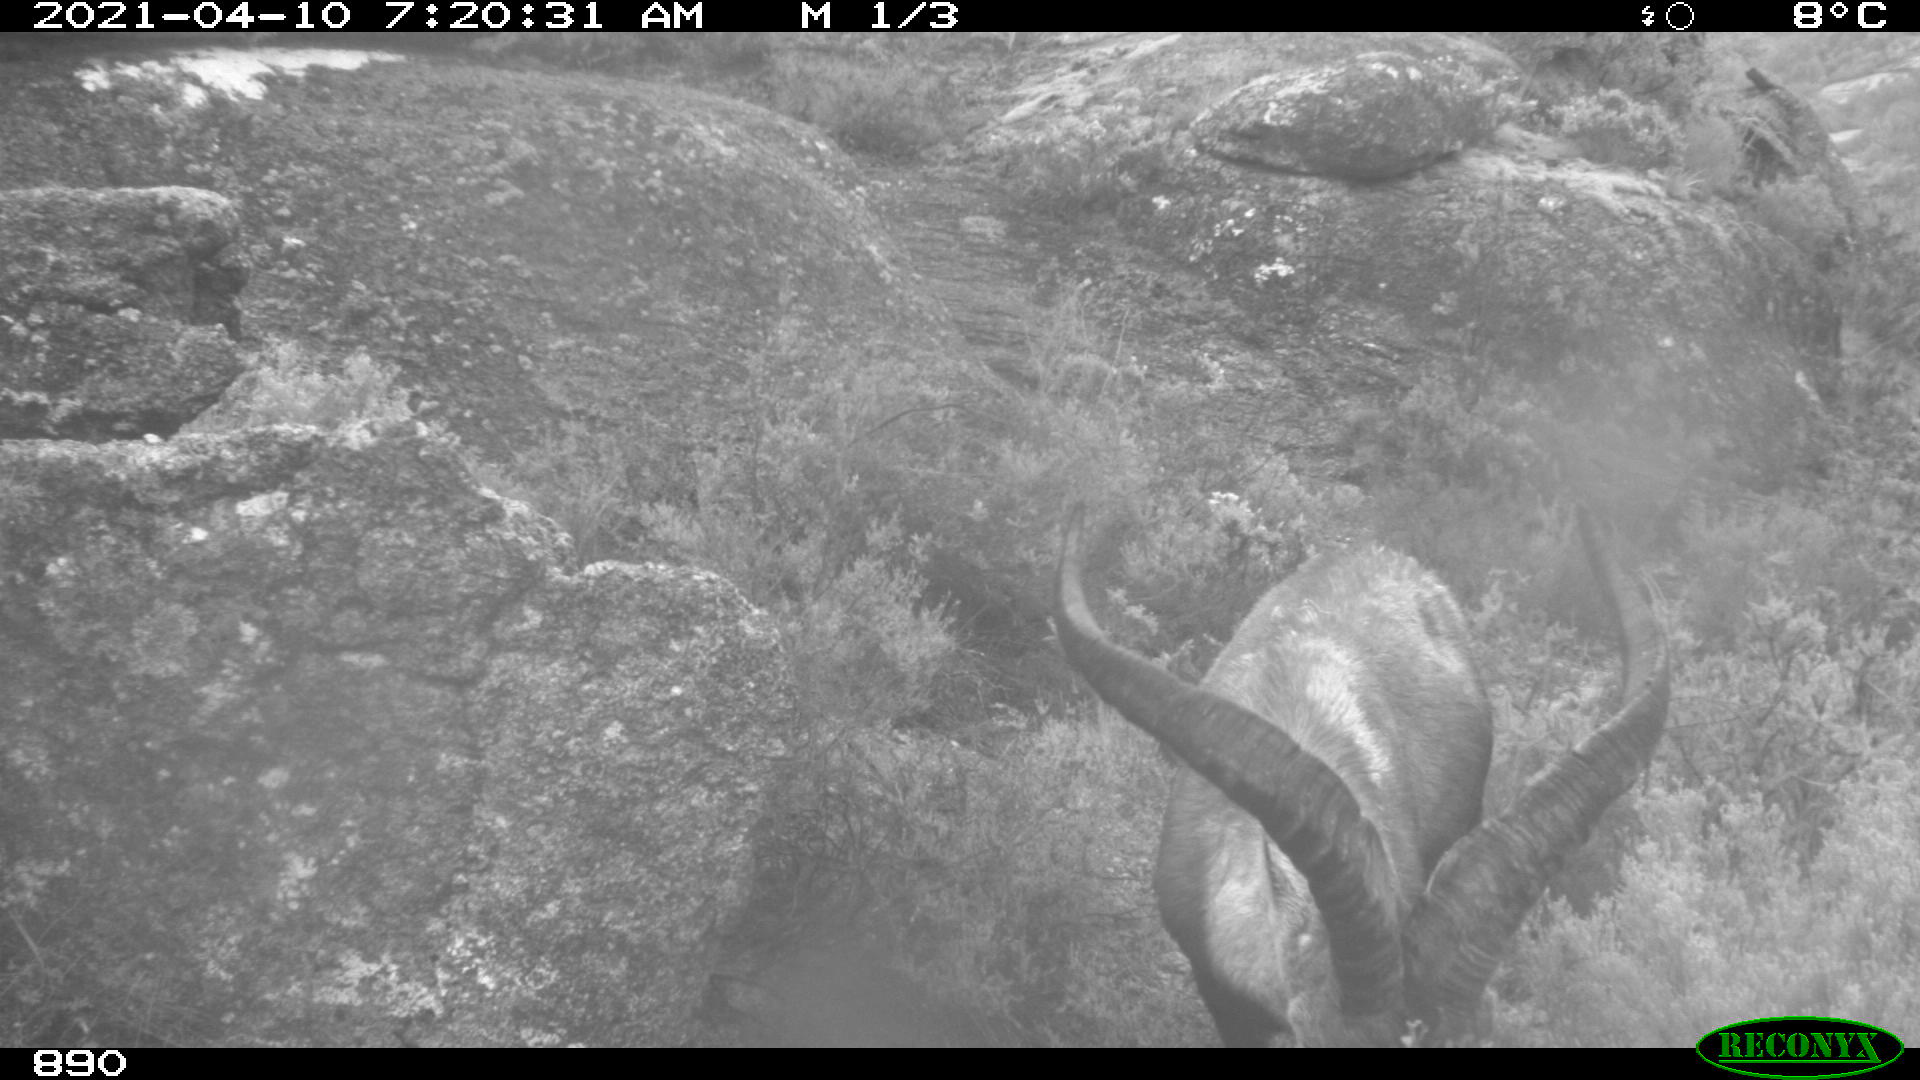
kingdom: Animalia
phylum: Chordata
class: Mammalia
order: Artiodactyla
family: Bovidae
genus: Capra
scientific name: Capra pyrenaica
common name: Spanish ibex
